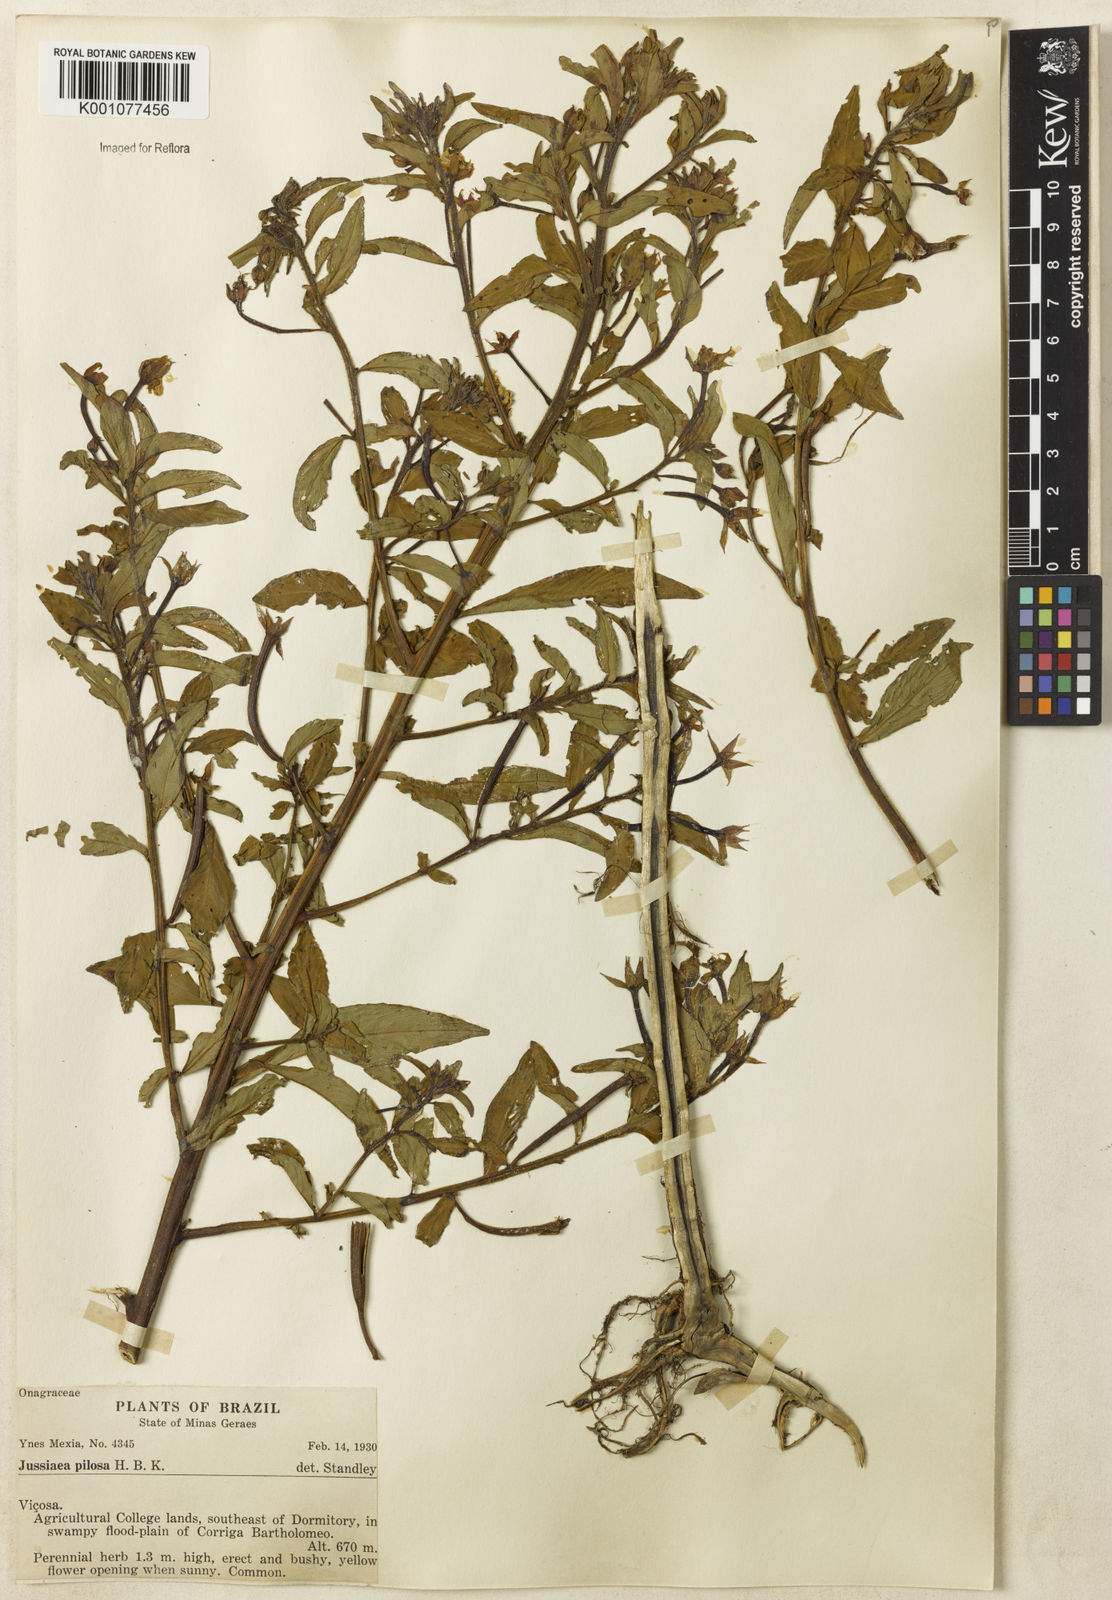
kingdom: Plantae
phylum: Tracheophyta
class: Magnoliopsida
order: Myrtales
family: Onagraceae
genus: Ludwigia
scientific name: Ludwigia leptocarpa
